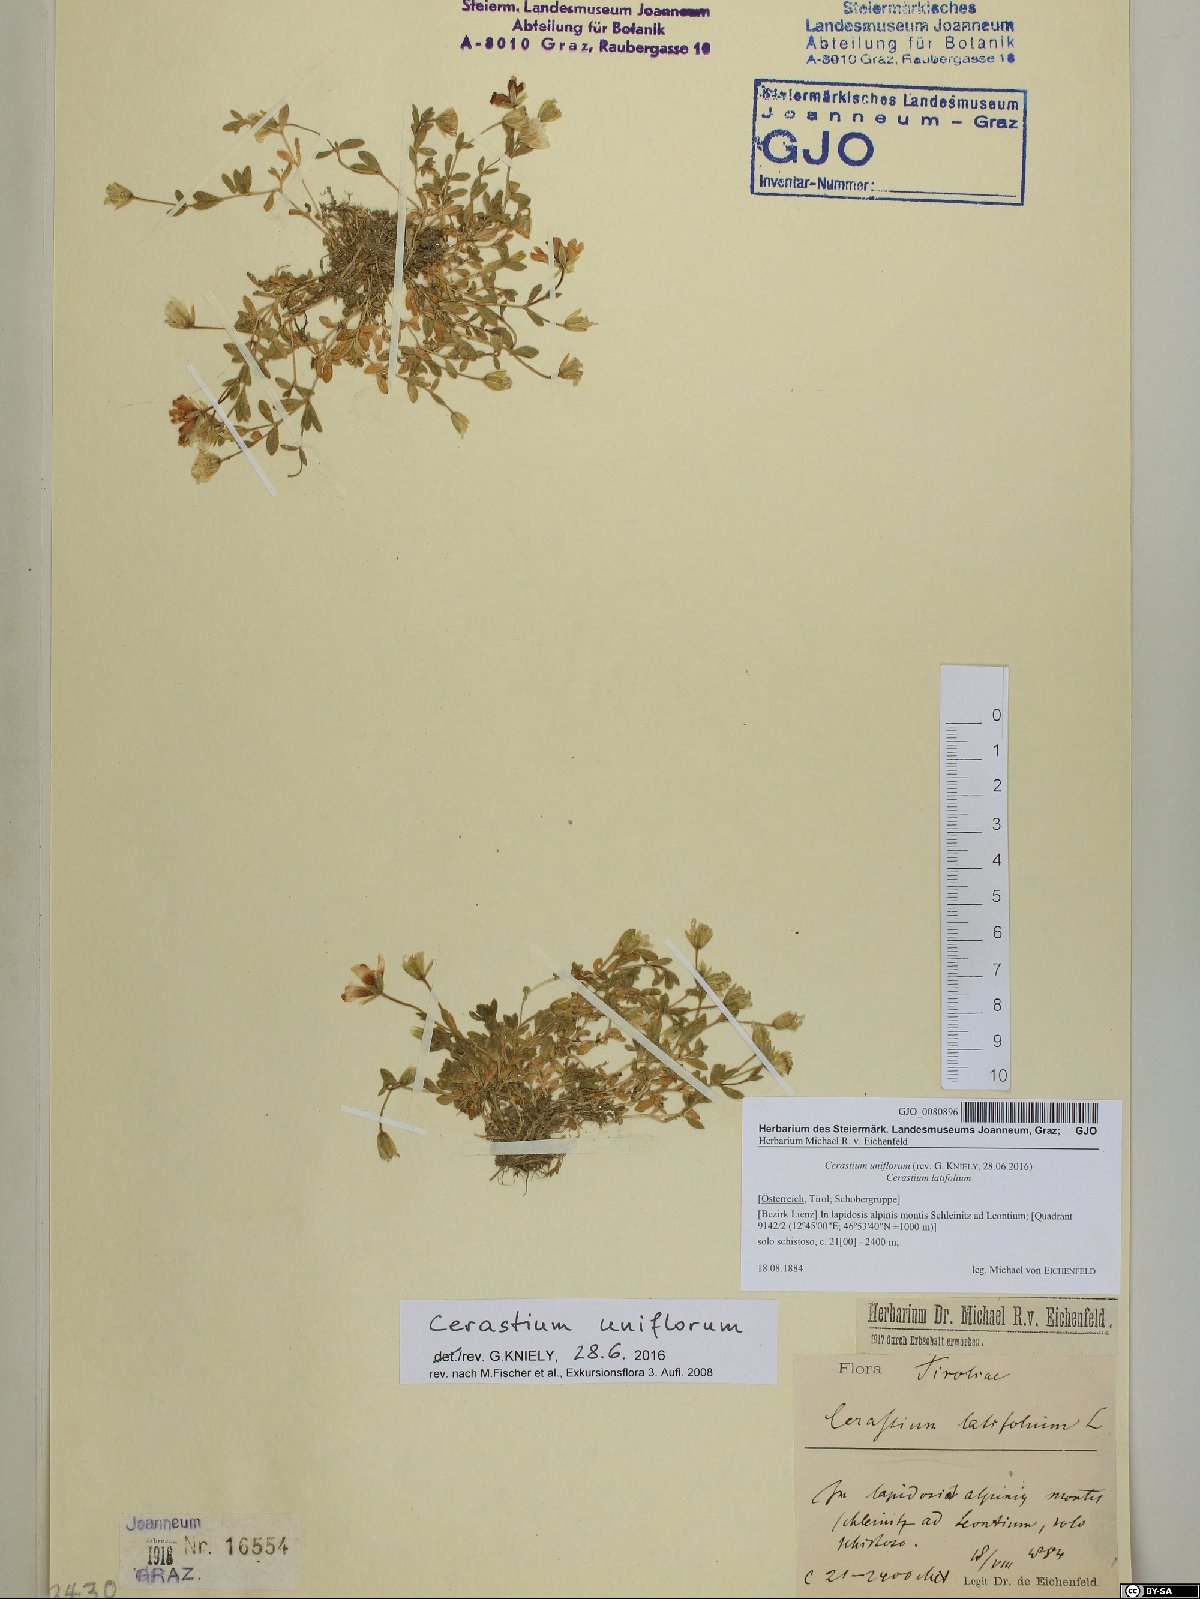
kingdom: Plantae
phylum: Tracheophyta
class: Magnoliopsida
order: Caryophyllales
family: Caryophyllaceae
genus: Cerastium
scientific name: Cerastium uniflorum
